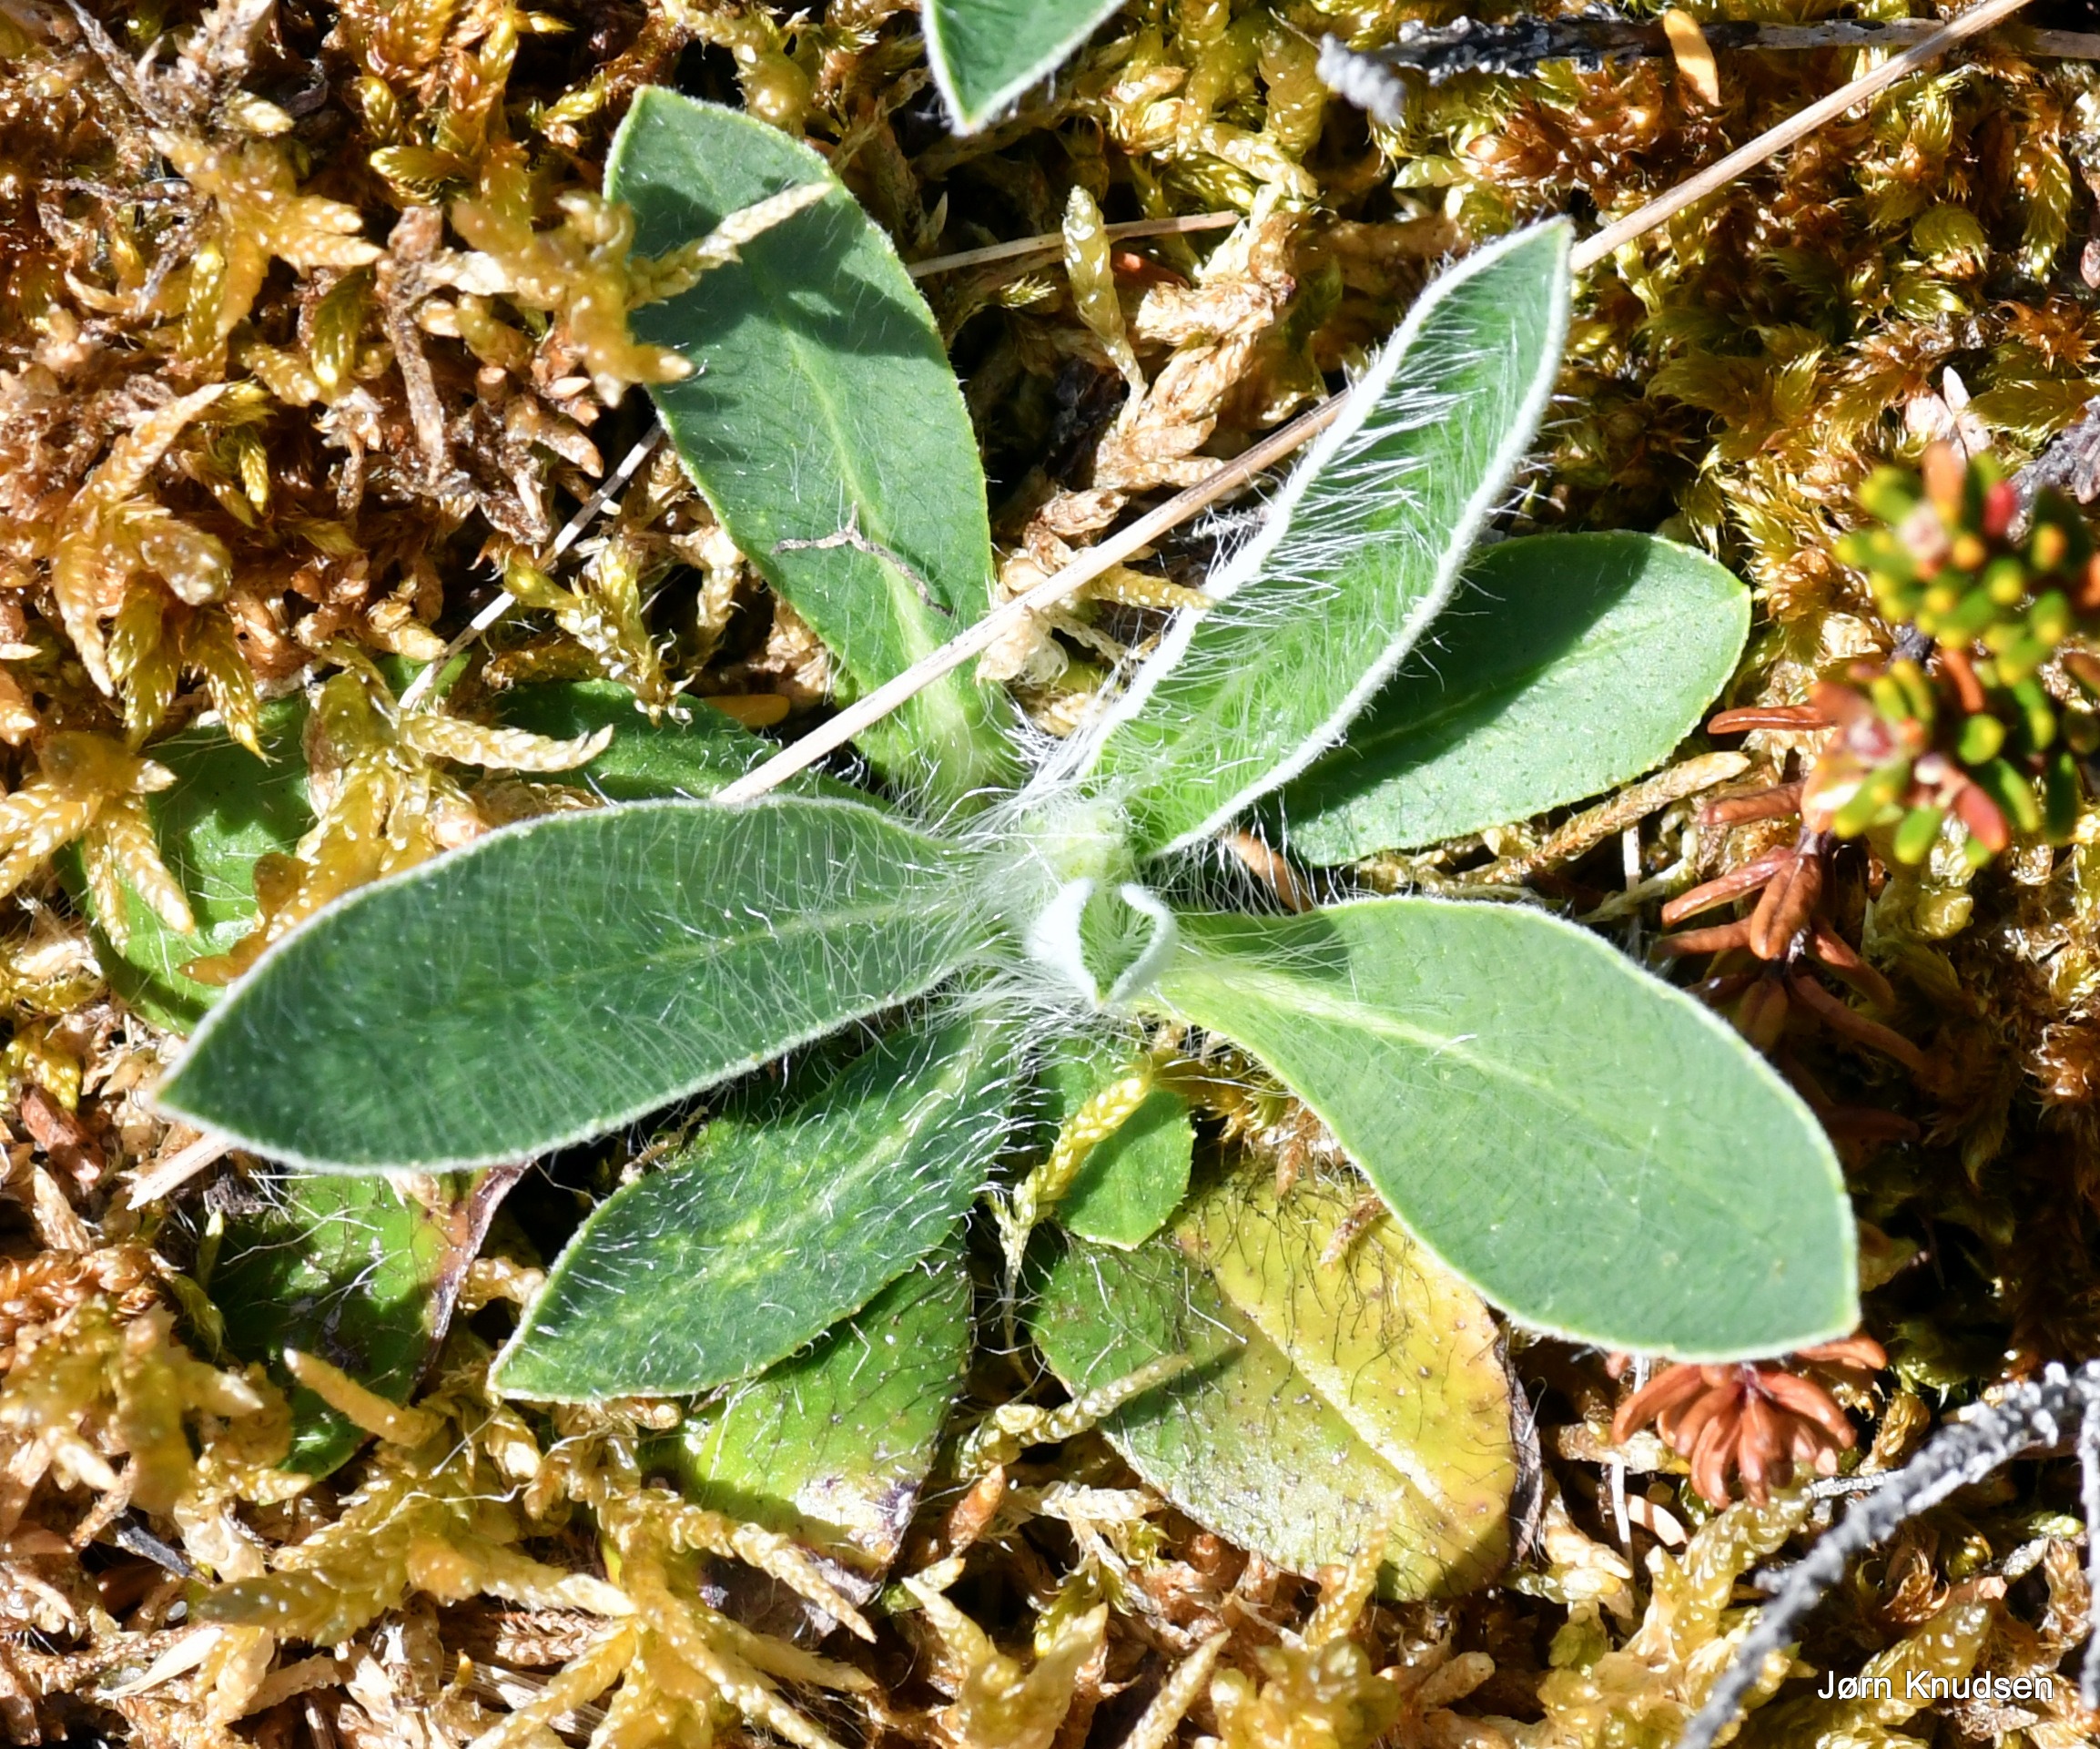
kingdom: Plantae
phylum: Tracheophyta
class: Magnoliopsida
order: Asterales
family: Asteraceae
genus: Pilosella
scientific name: Pilosella officinarum
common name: Håret høgeurt
